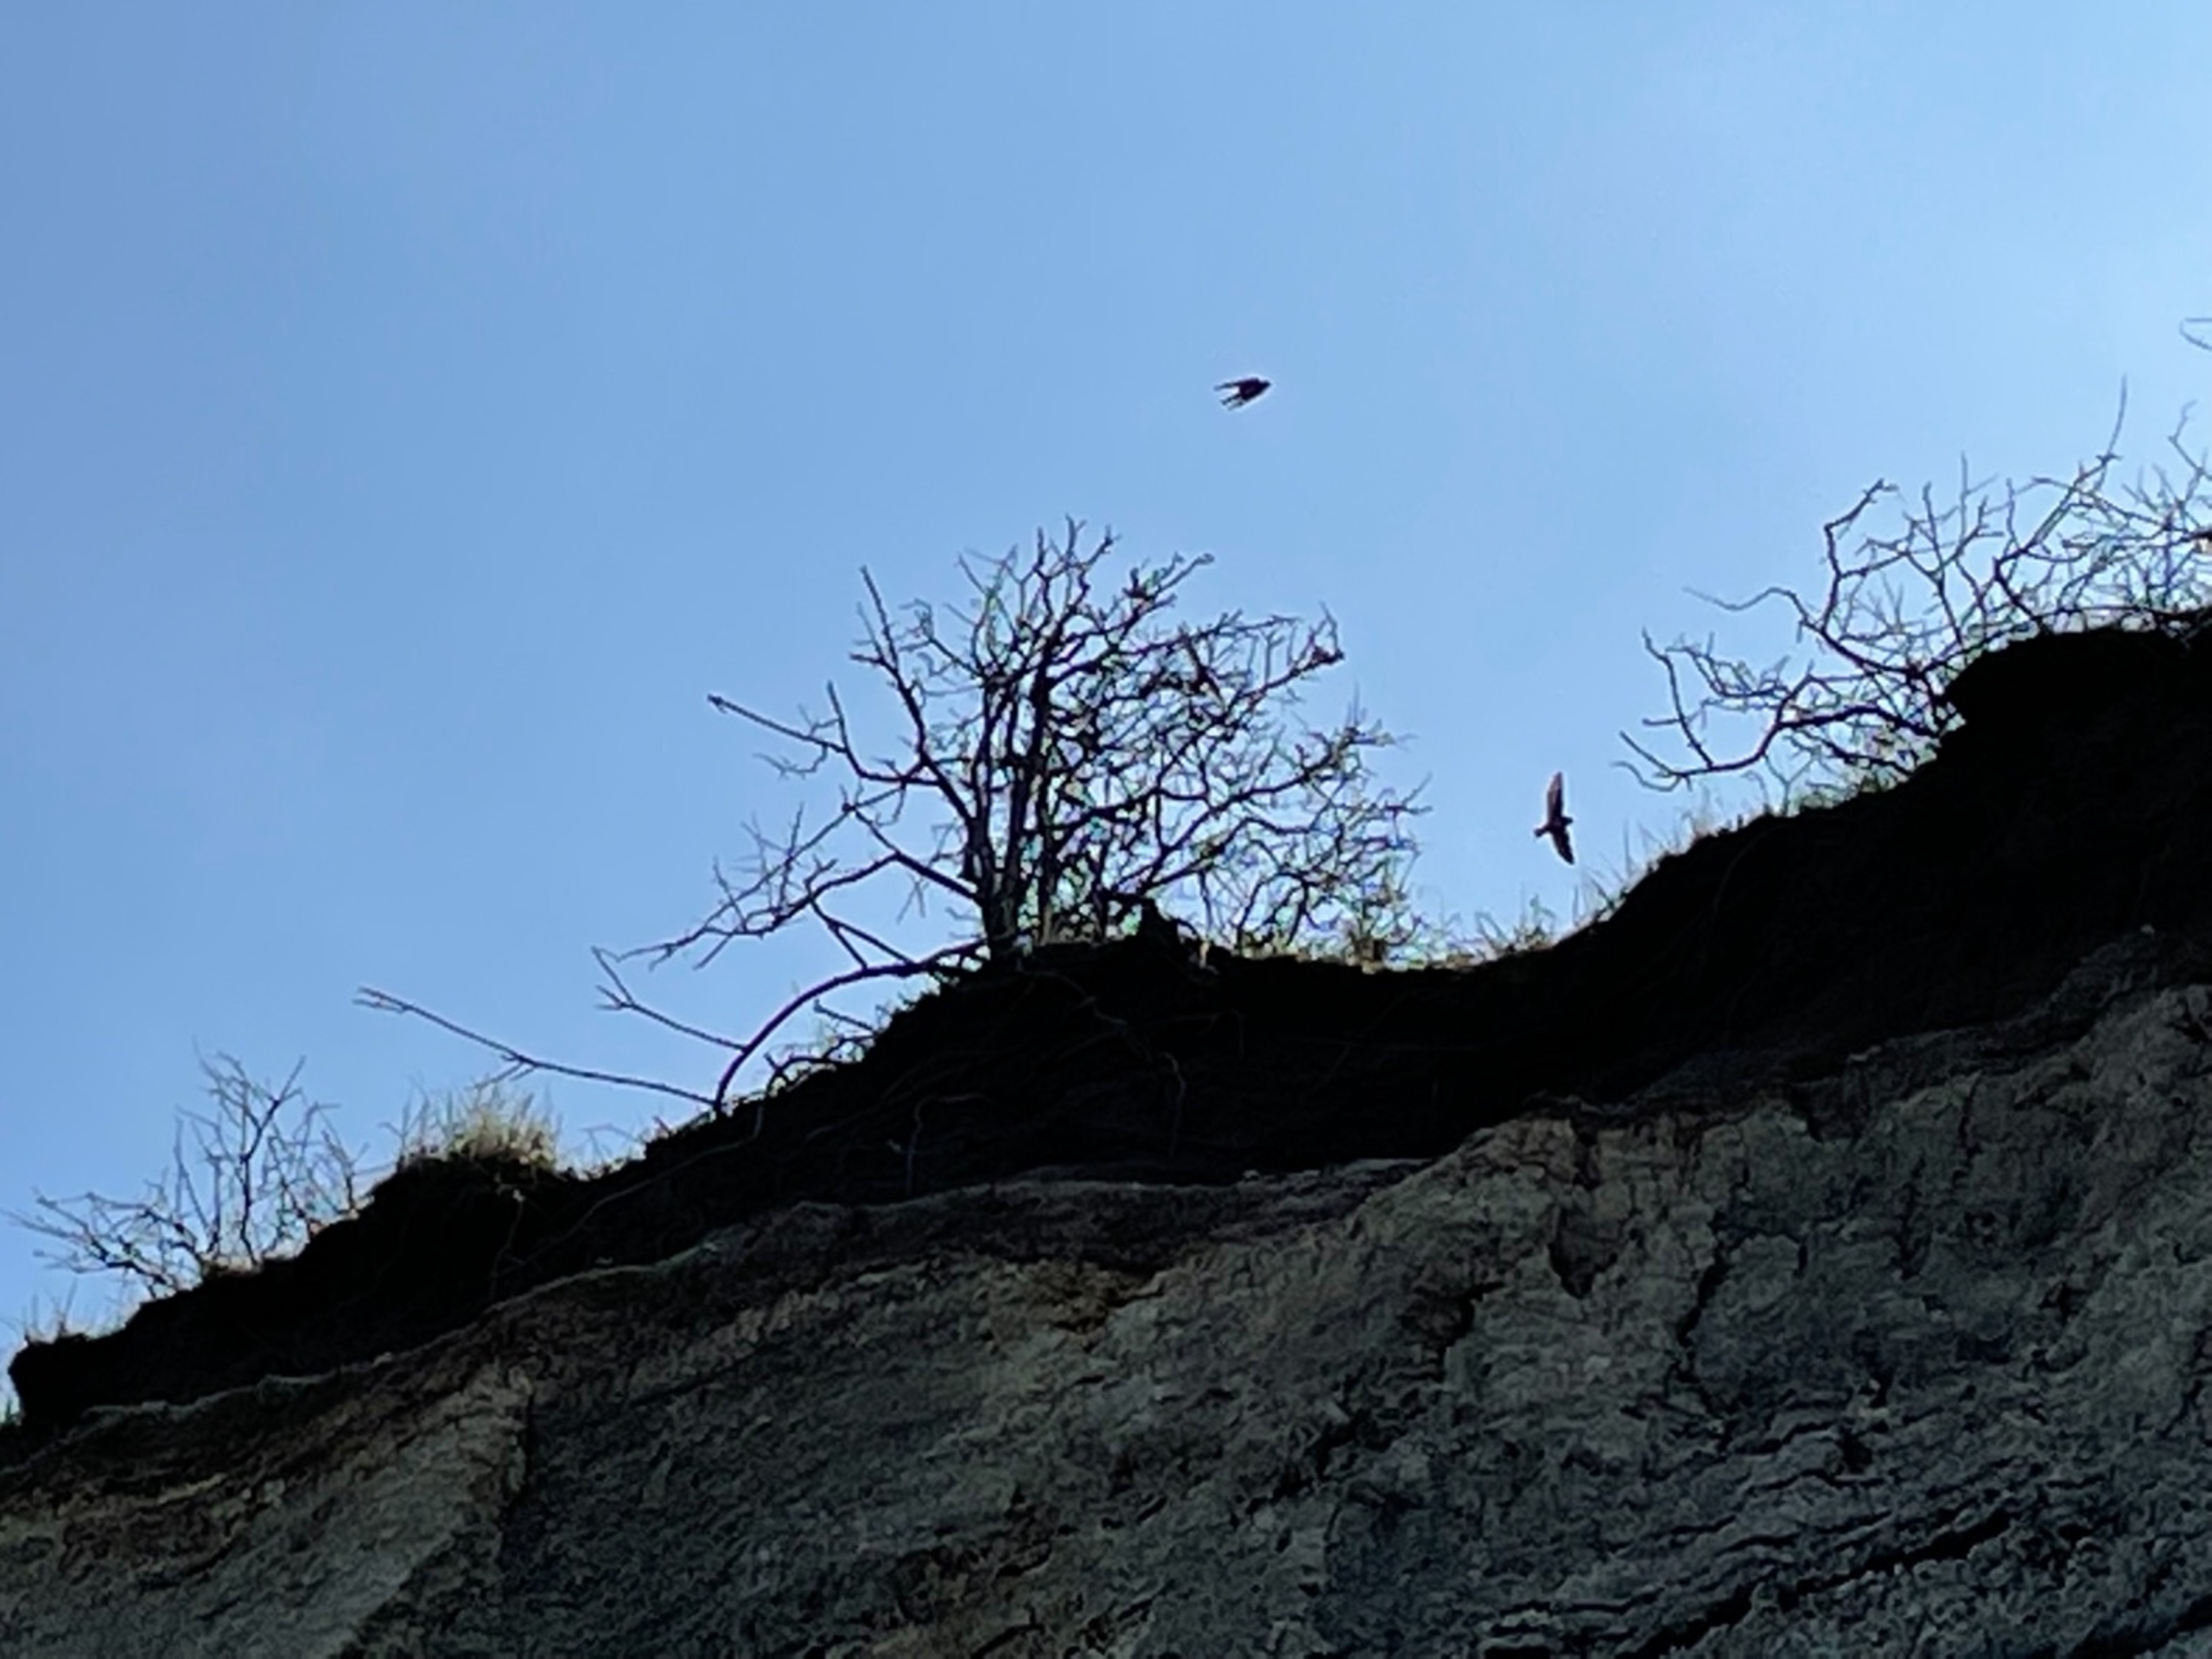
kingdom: Animalia
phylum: Chordata
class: Aves
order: Passeriformes
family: Hirundinidae
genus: Riparia
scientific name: Riparia riparia
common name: Digesvale
